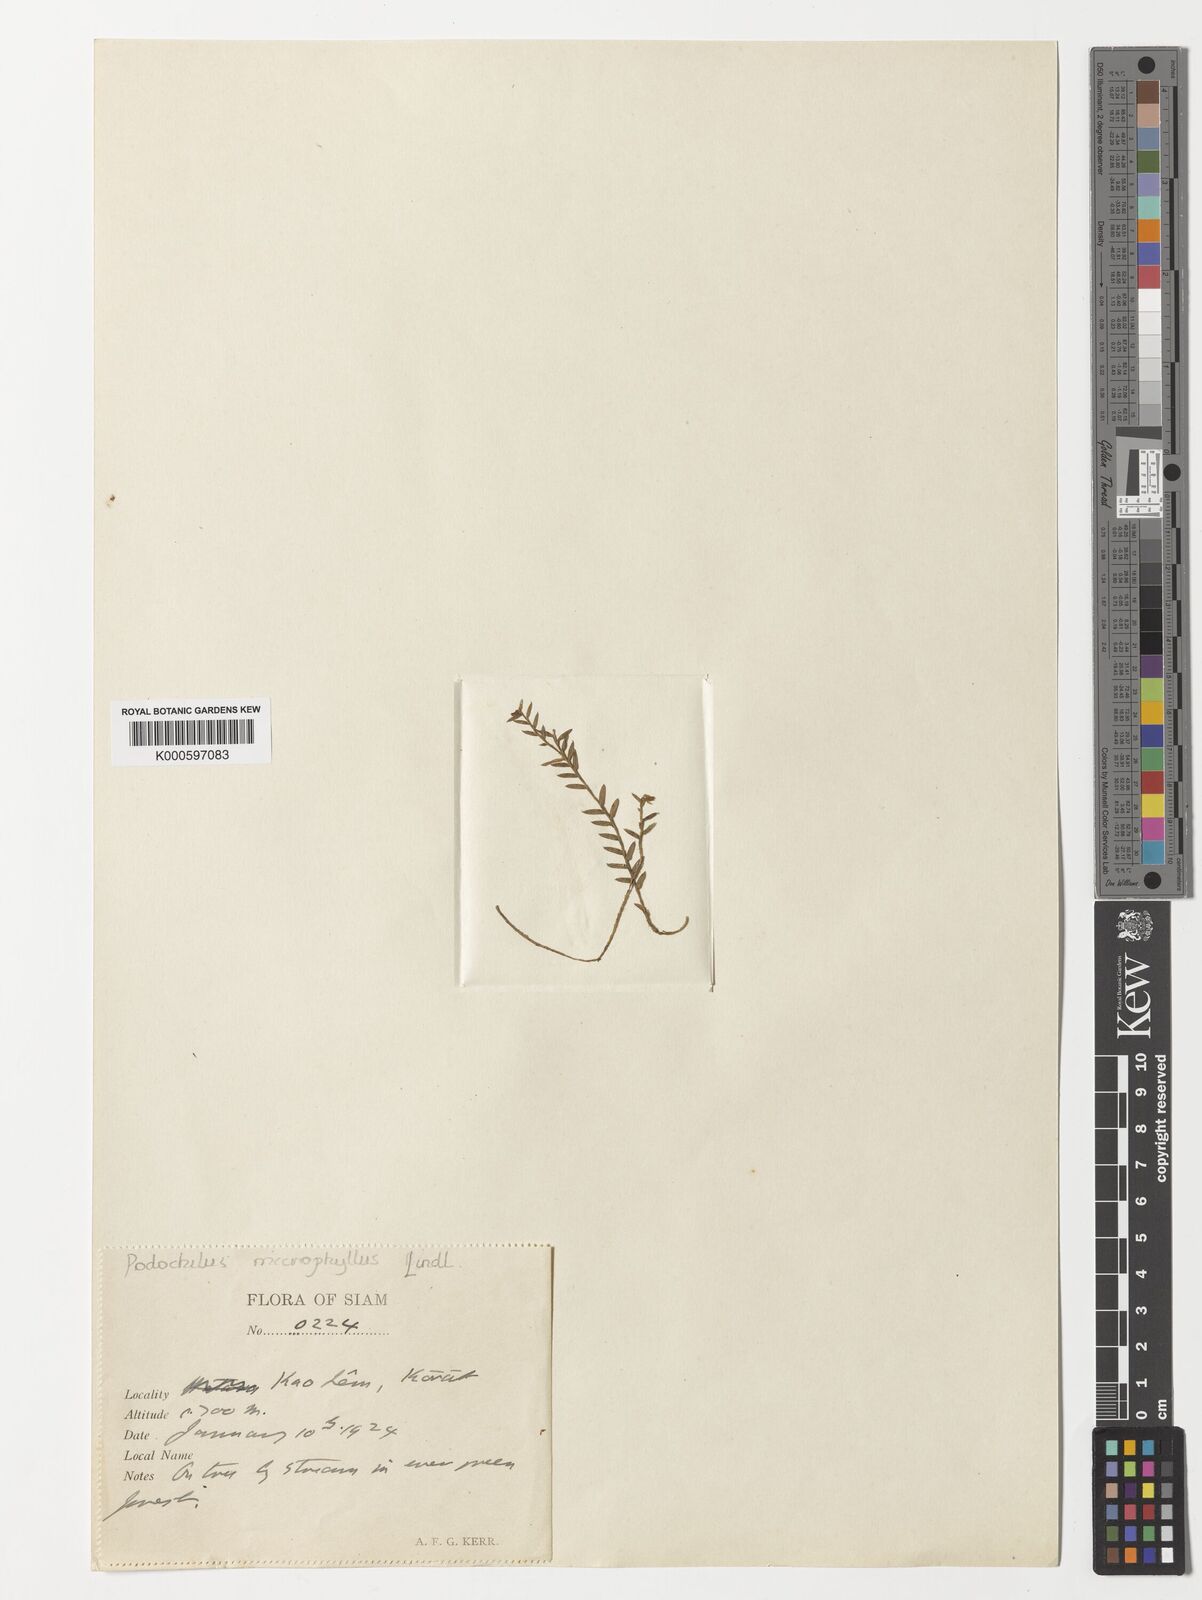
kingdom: Plantae
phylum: Tracheophyta
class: Liliopsida
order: Asparagales
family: Orchidaceae
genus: Podochilus
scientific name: Podochilus microphyllus
